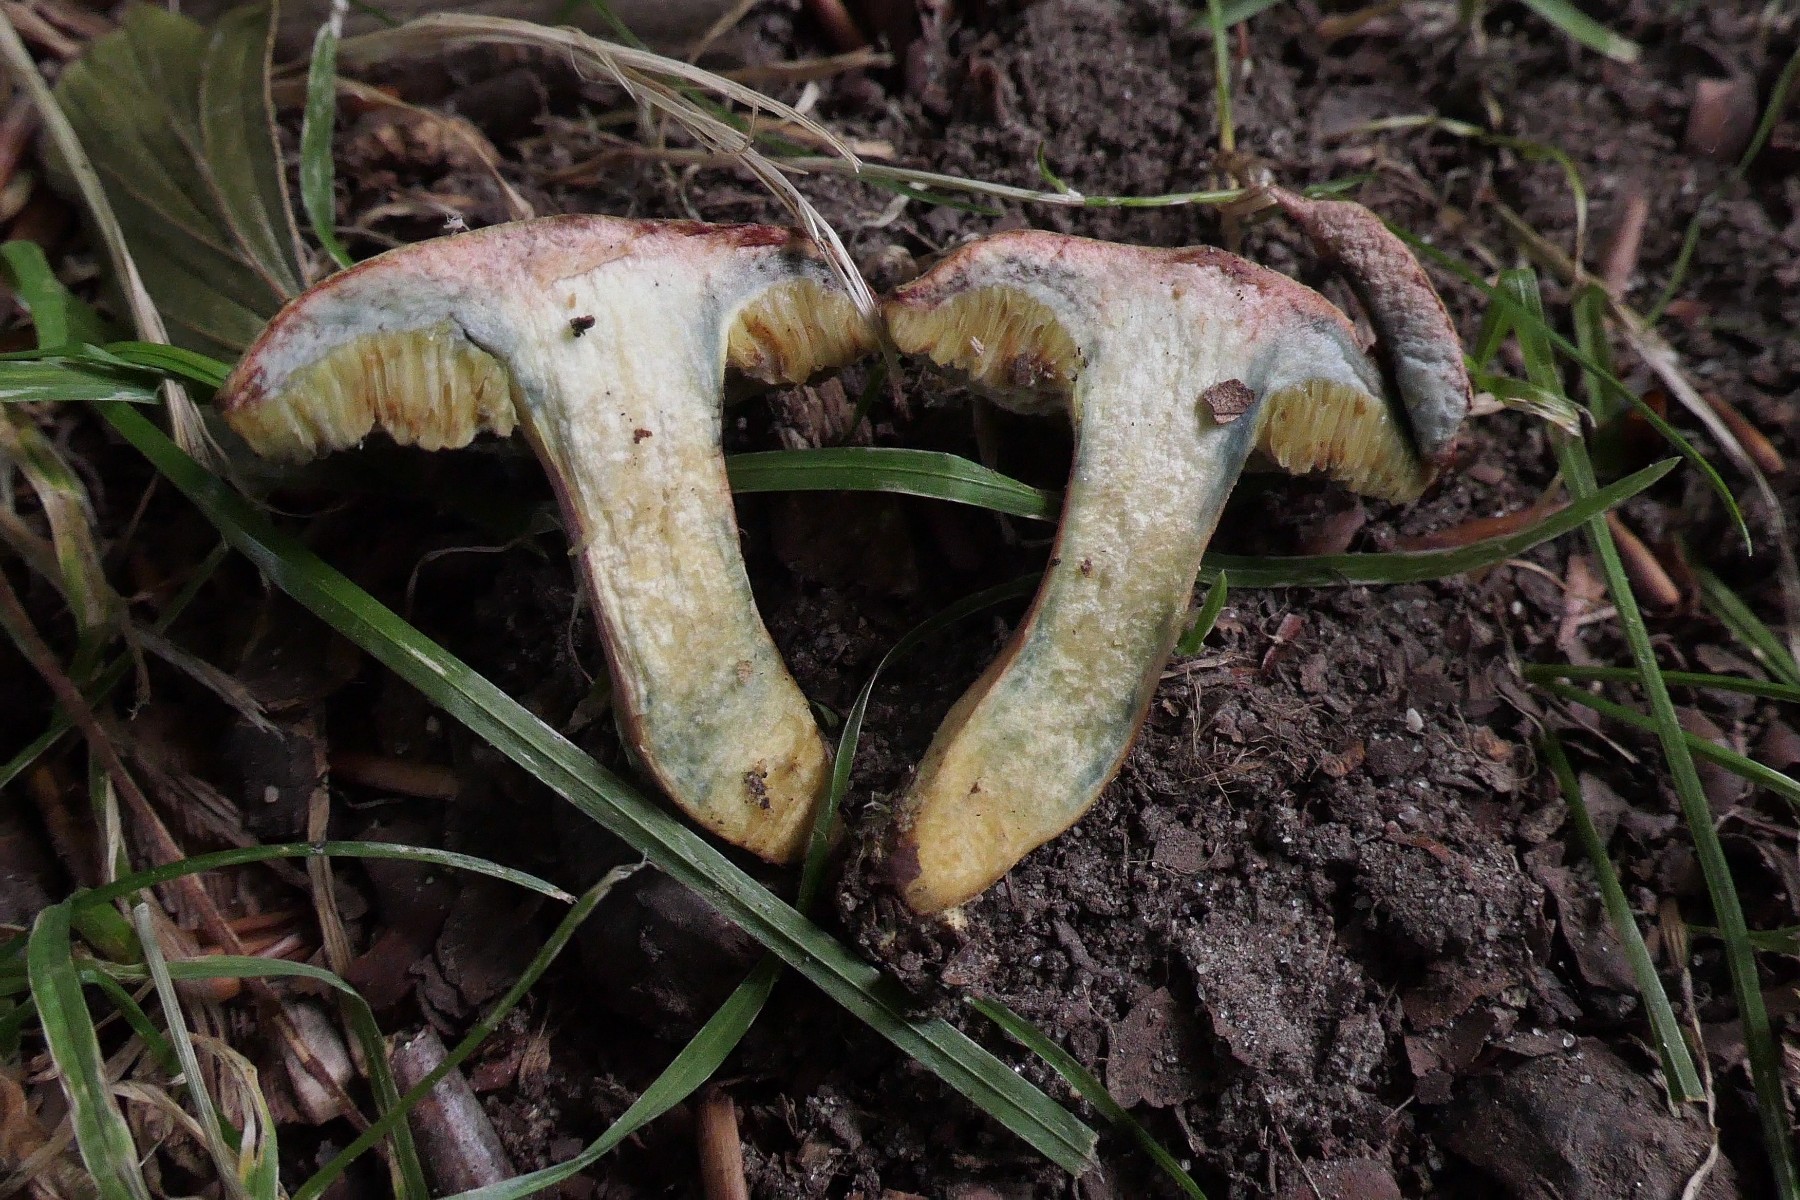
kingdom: Fungi
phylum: Basidiomycota
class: Agaricomycetes
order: Boletales
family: Boletaceae
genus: Hortiboletus
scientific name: Hortiboletus bubalinus
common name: aurora-rørhat
